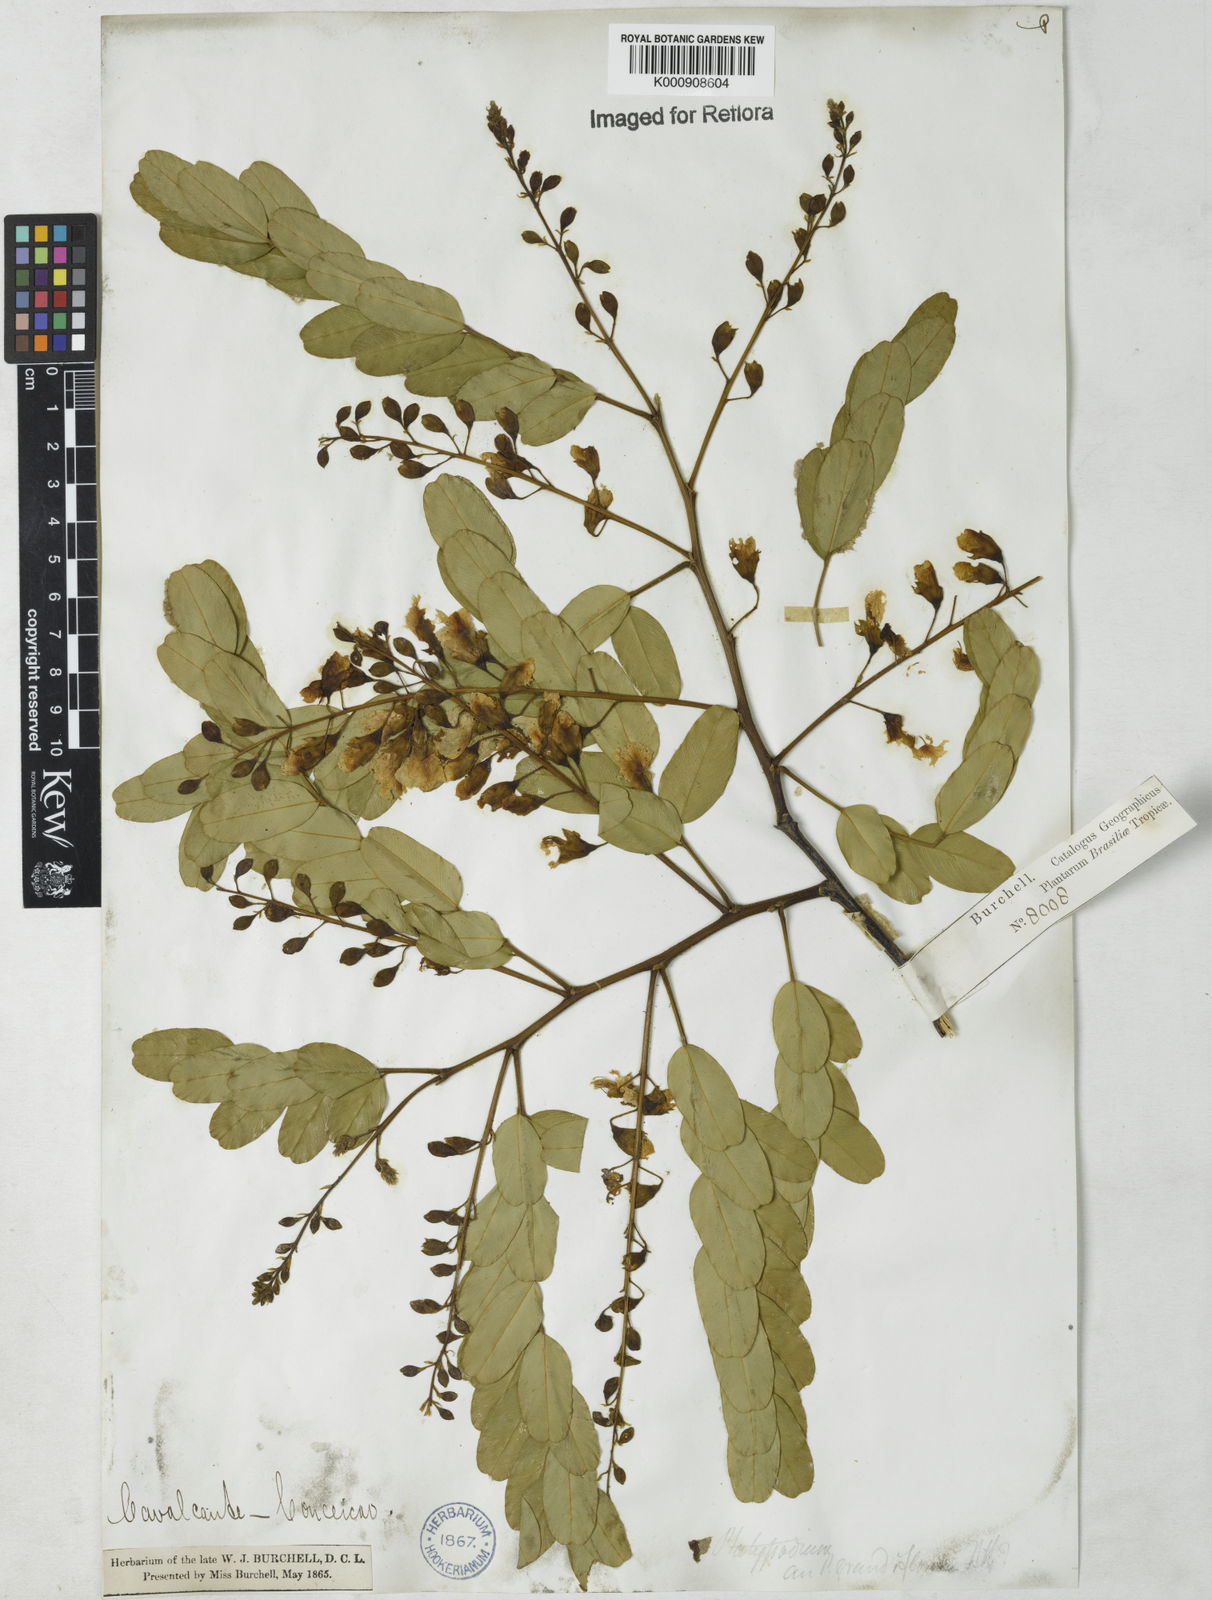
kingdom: Plantae
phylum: Tracheophyta
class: Magnoliopsida
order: Fabales
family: Fabaceae
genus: Platypodium
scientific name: Platypodium elegans
